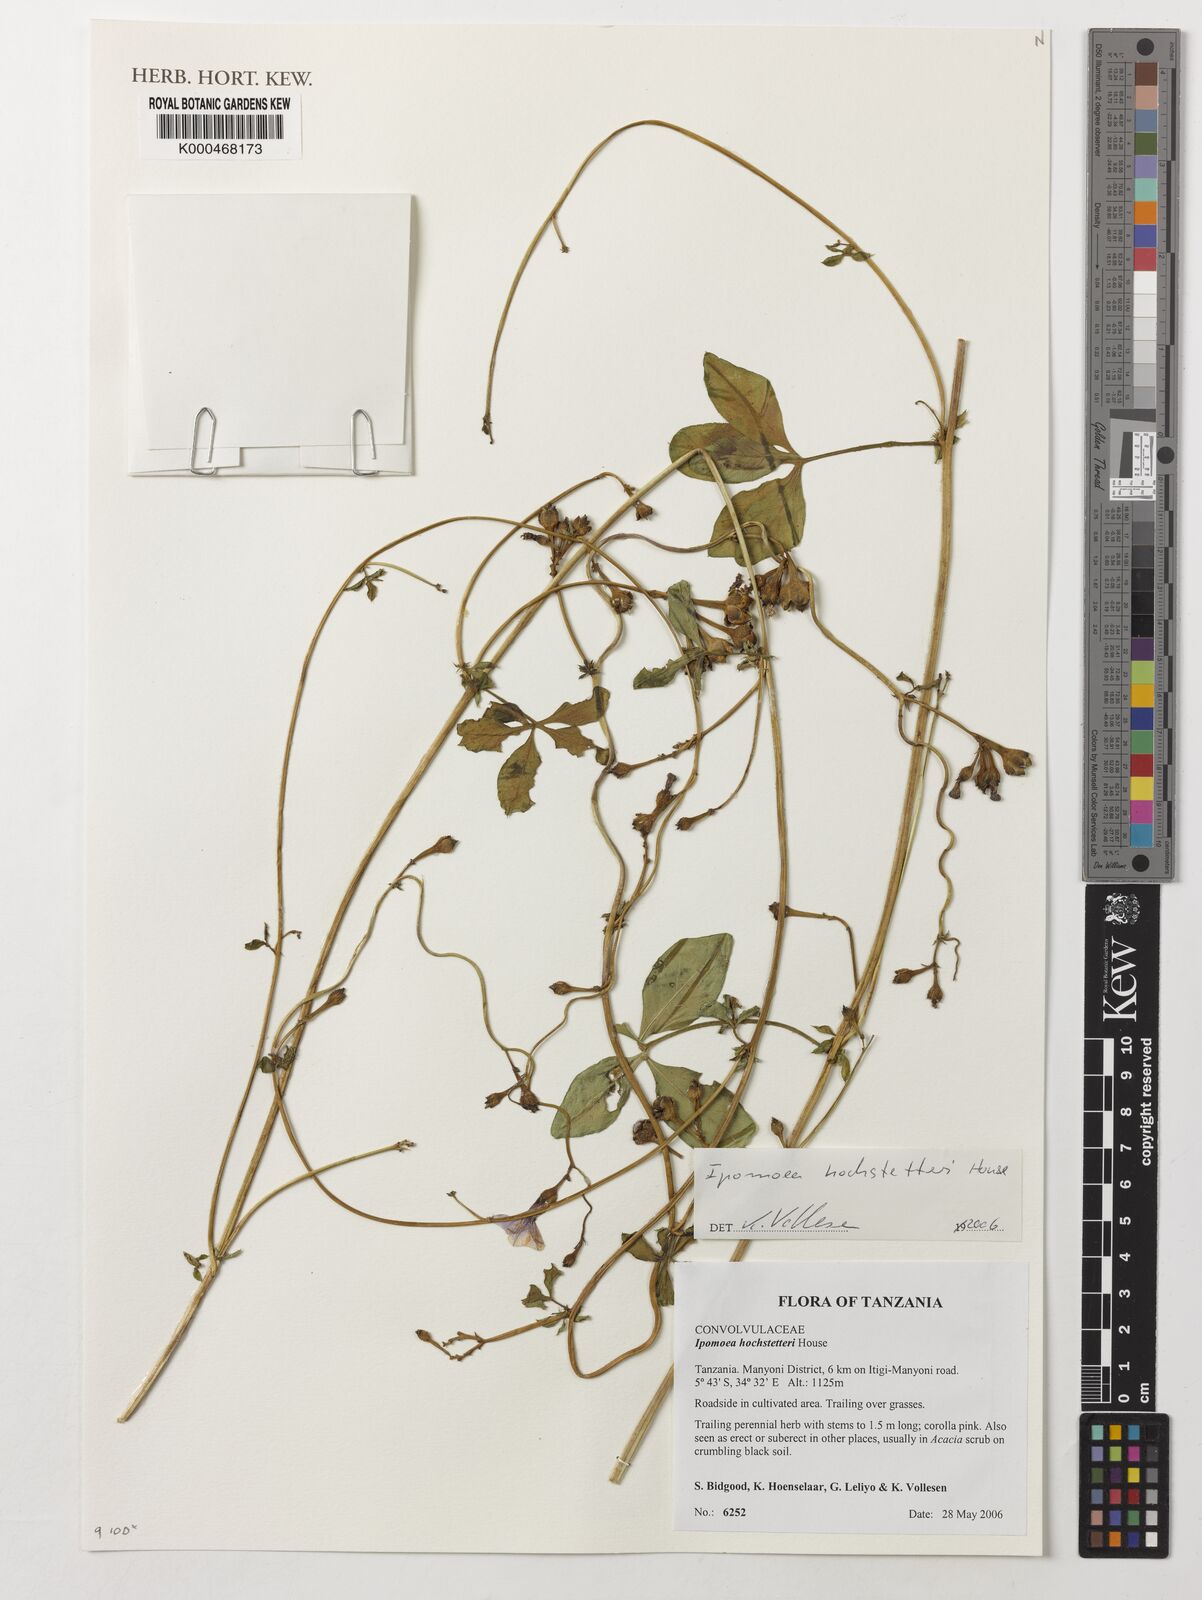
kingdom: Plantae
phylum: Tracheophyta
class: Magnoliopsida
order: Solanales
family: Convolvulaceae
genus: Ipomoea
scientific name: Ipomoea hochstetteri
